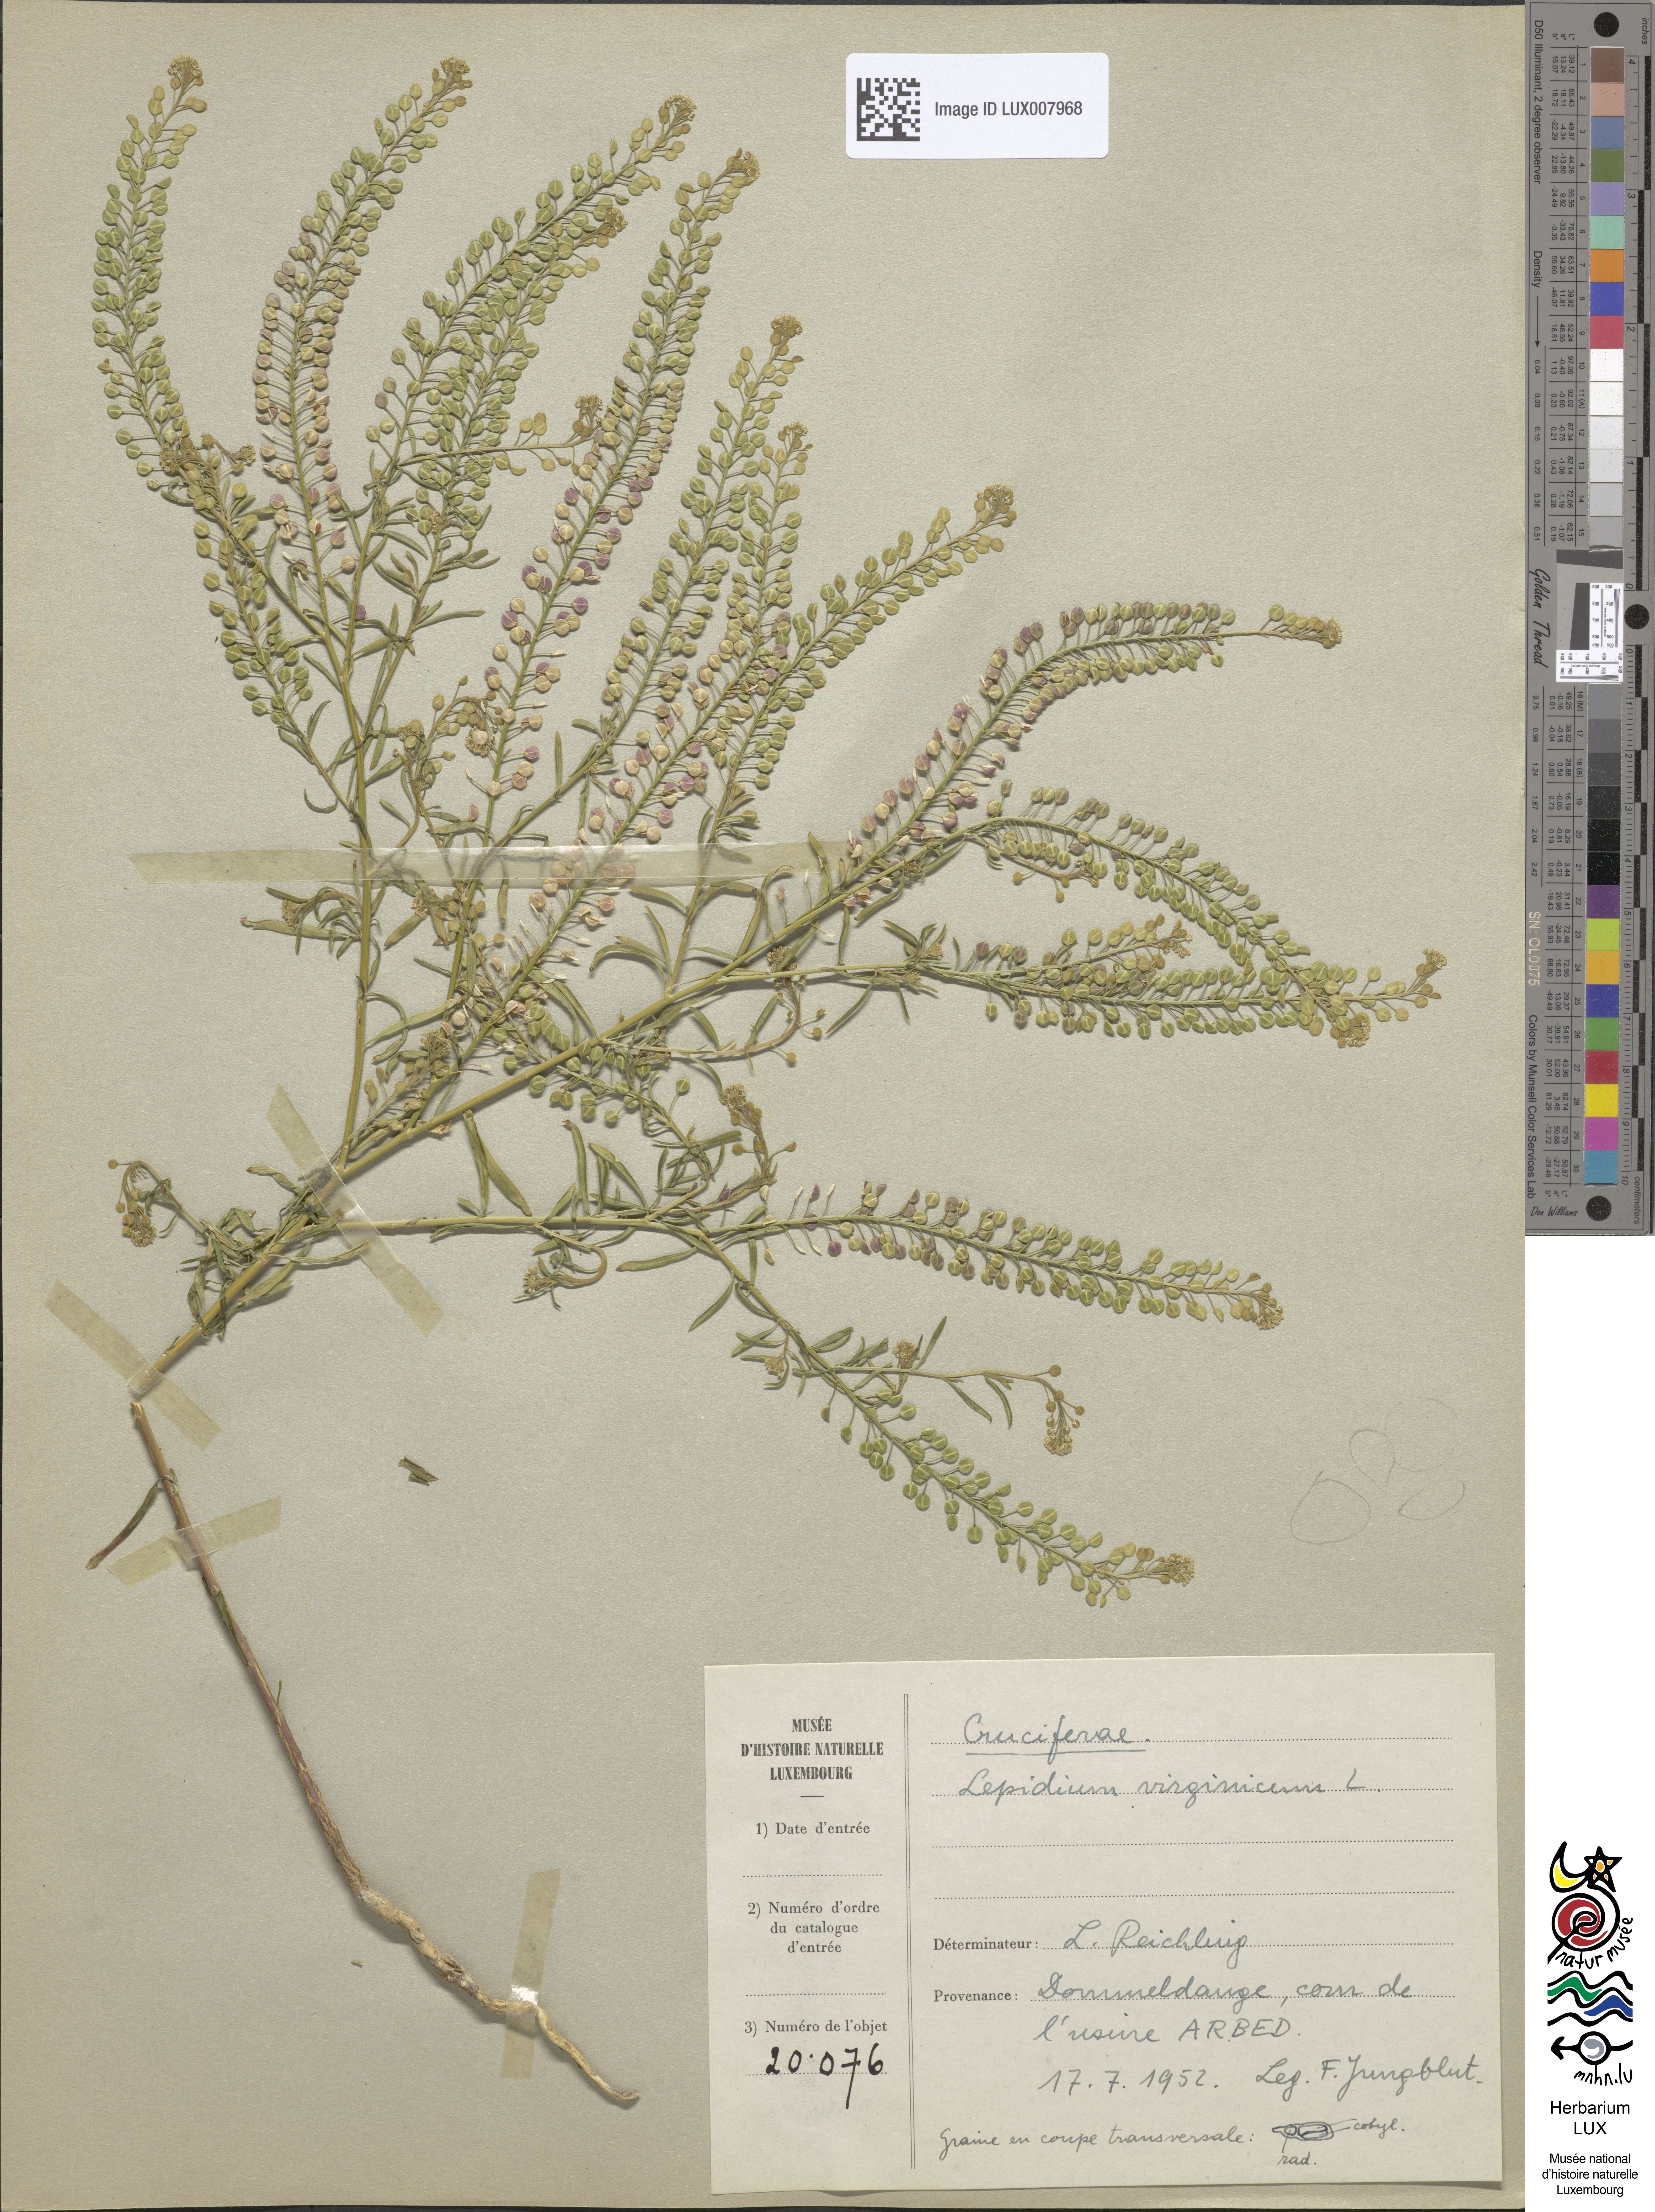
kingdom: Plantae
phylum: Tracheophyta
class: Magnoliopsida
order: Brassicales
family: Brassicaceae
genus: Lepidium
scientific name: Lepidium virginicum
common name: Least pepperwort
